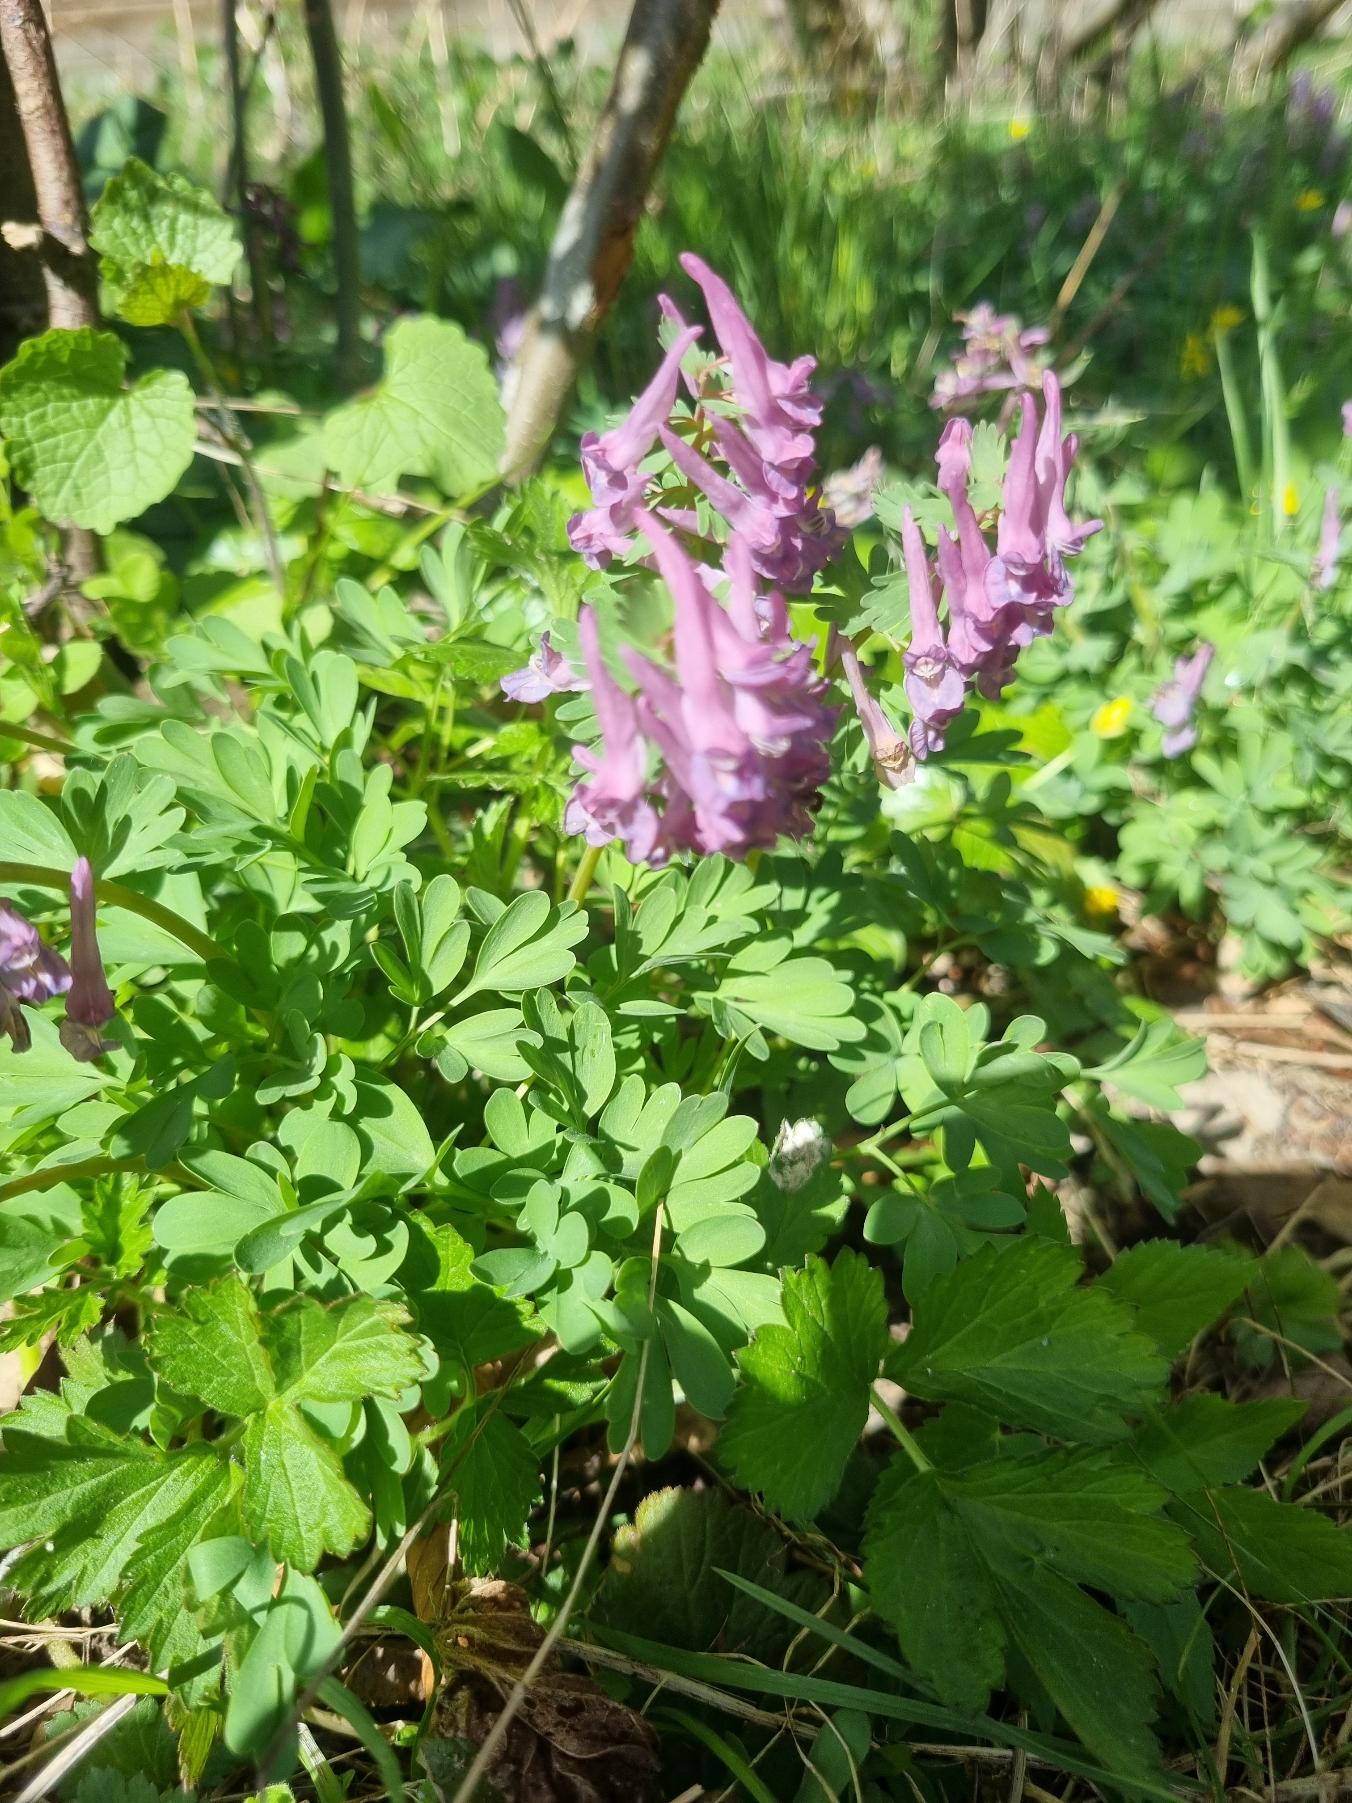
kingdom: Plantae
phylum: Tracheophyta
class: Magnoliopsida
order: Ranunculales
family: Papaveraceae
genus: Corydalis
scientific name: Corydalis solida
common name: Langstilket lærkespore
